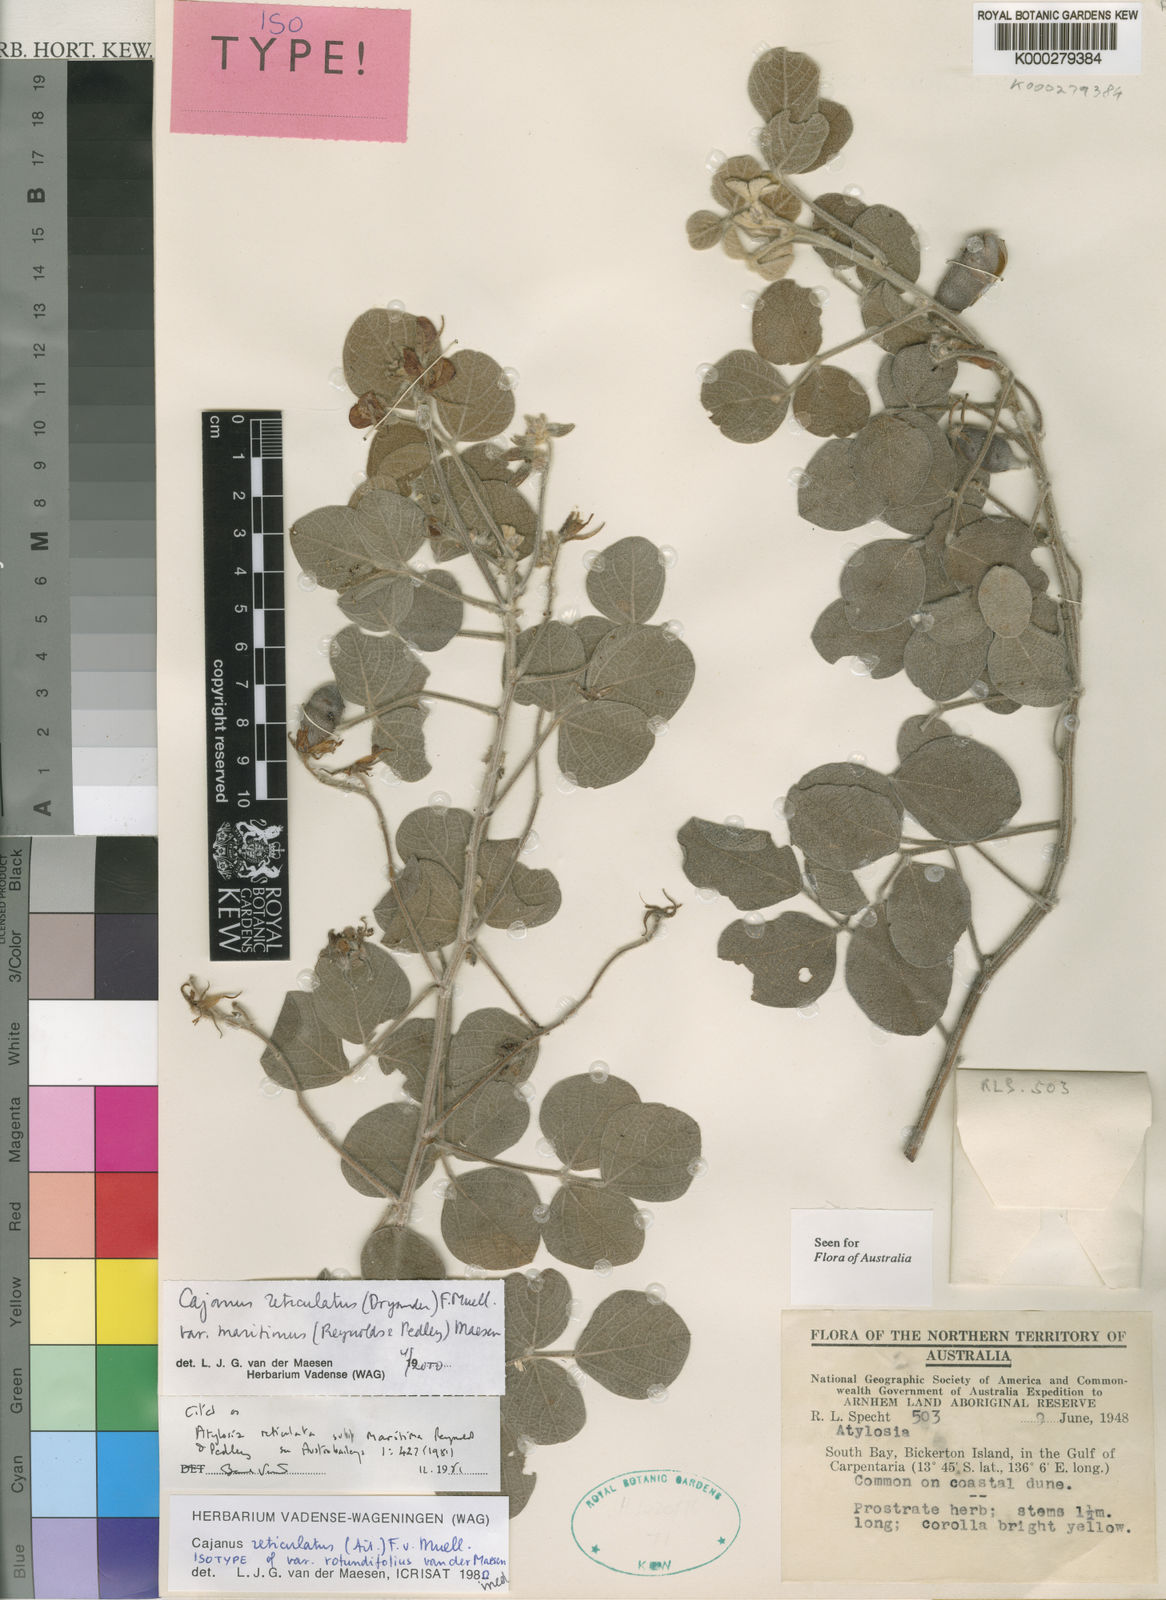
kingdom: Plantae
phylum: Tracheophyta
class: Magnoliopsida
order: Fabales
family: Fabaceae
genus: Cajanus
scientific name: Cajanus reticulatus
